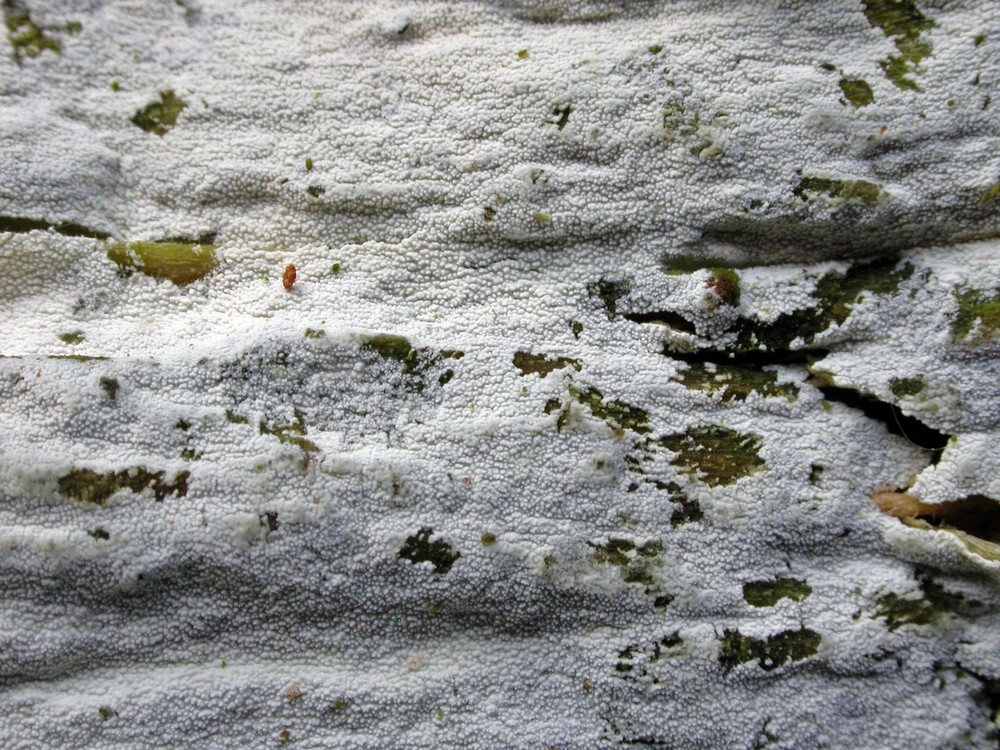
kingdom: Fungi
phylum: Basidiomycota
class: Agaricomycetes
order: Hymenochaetales
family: Schizoporaceae
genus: Xylodon
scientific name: Xylodon brevisetus
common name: tætvortet tandsvamp
